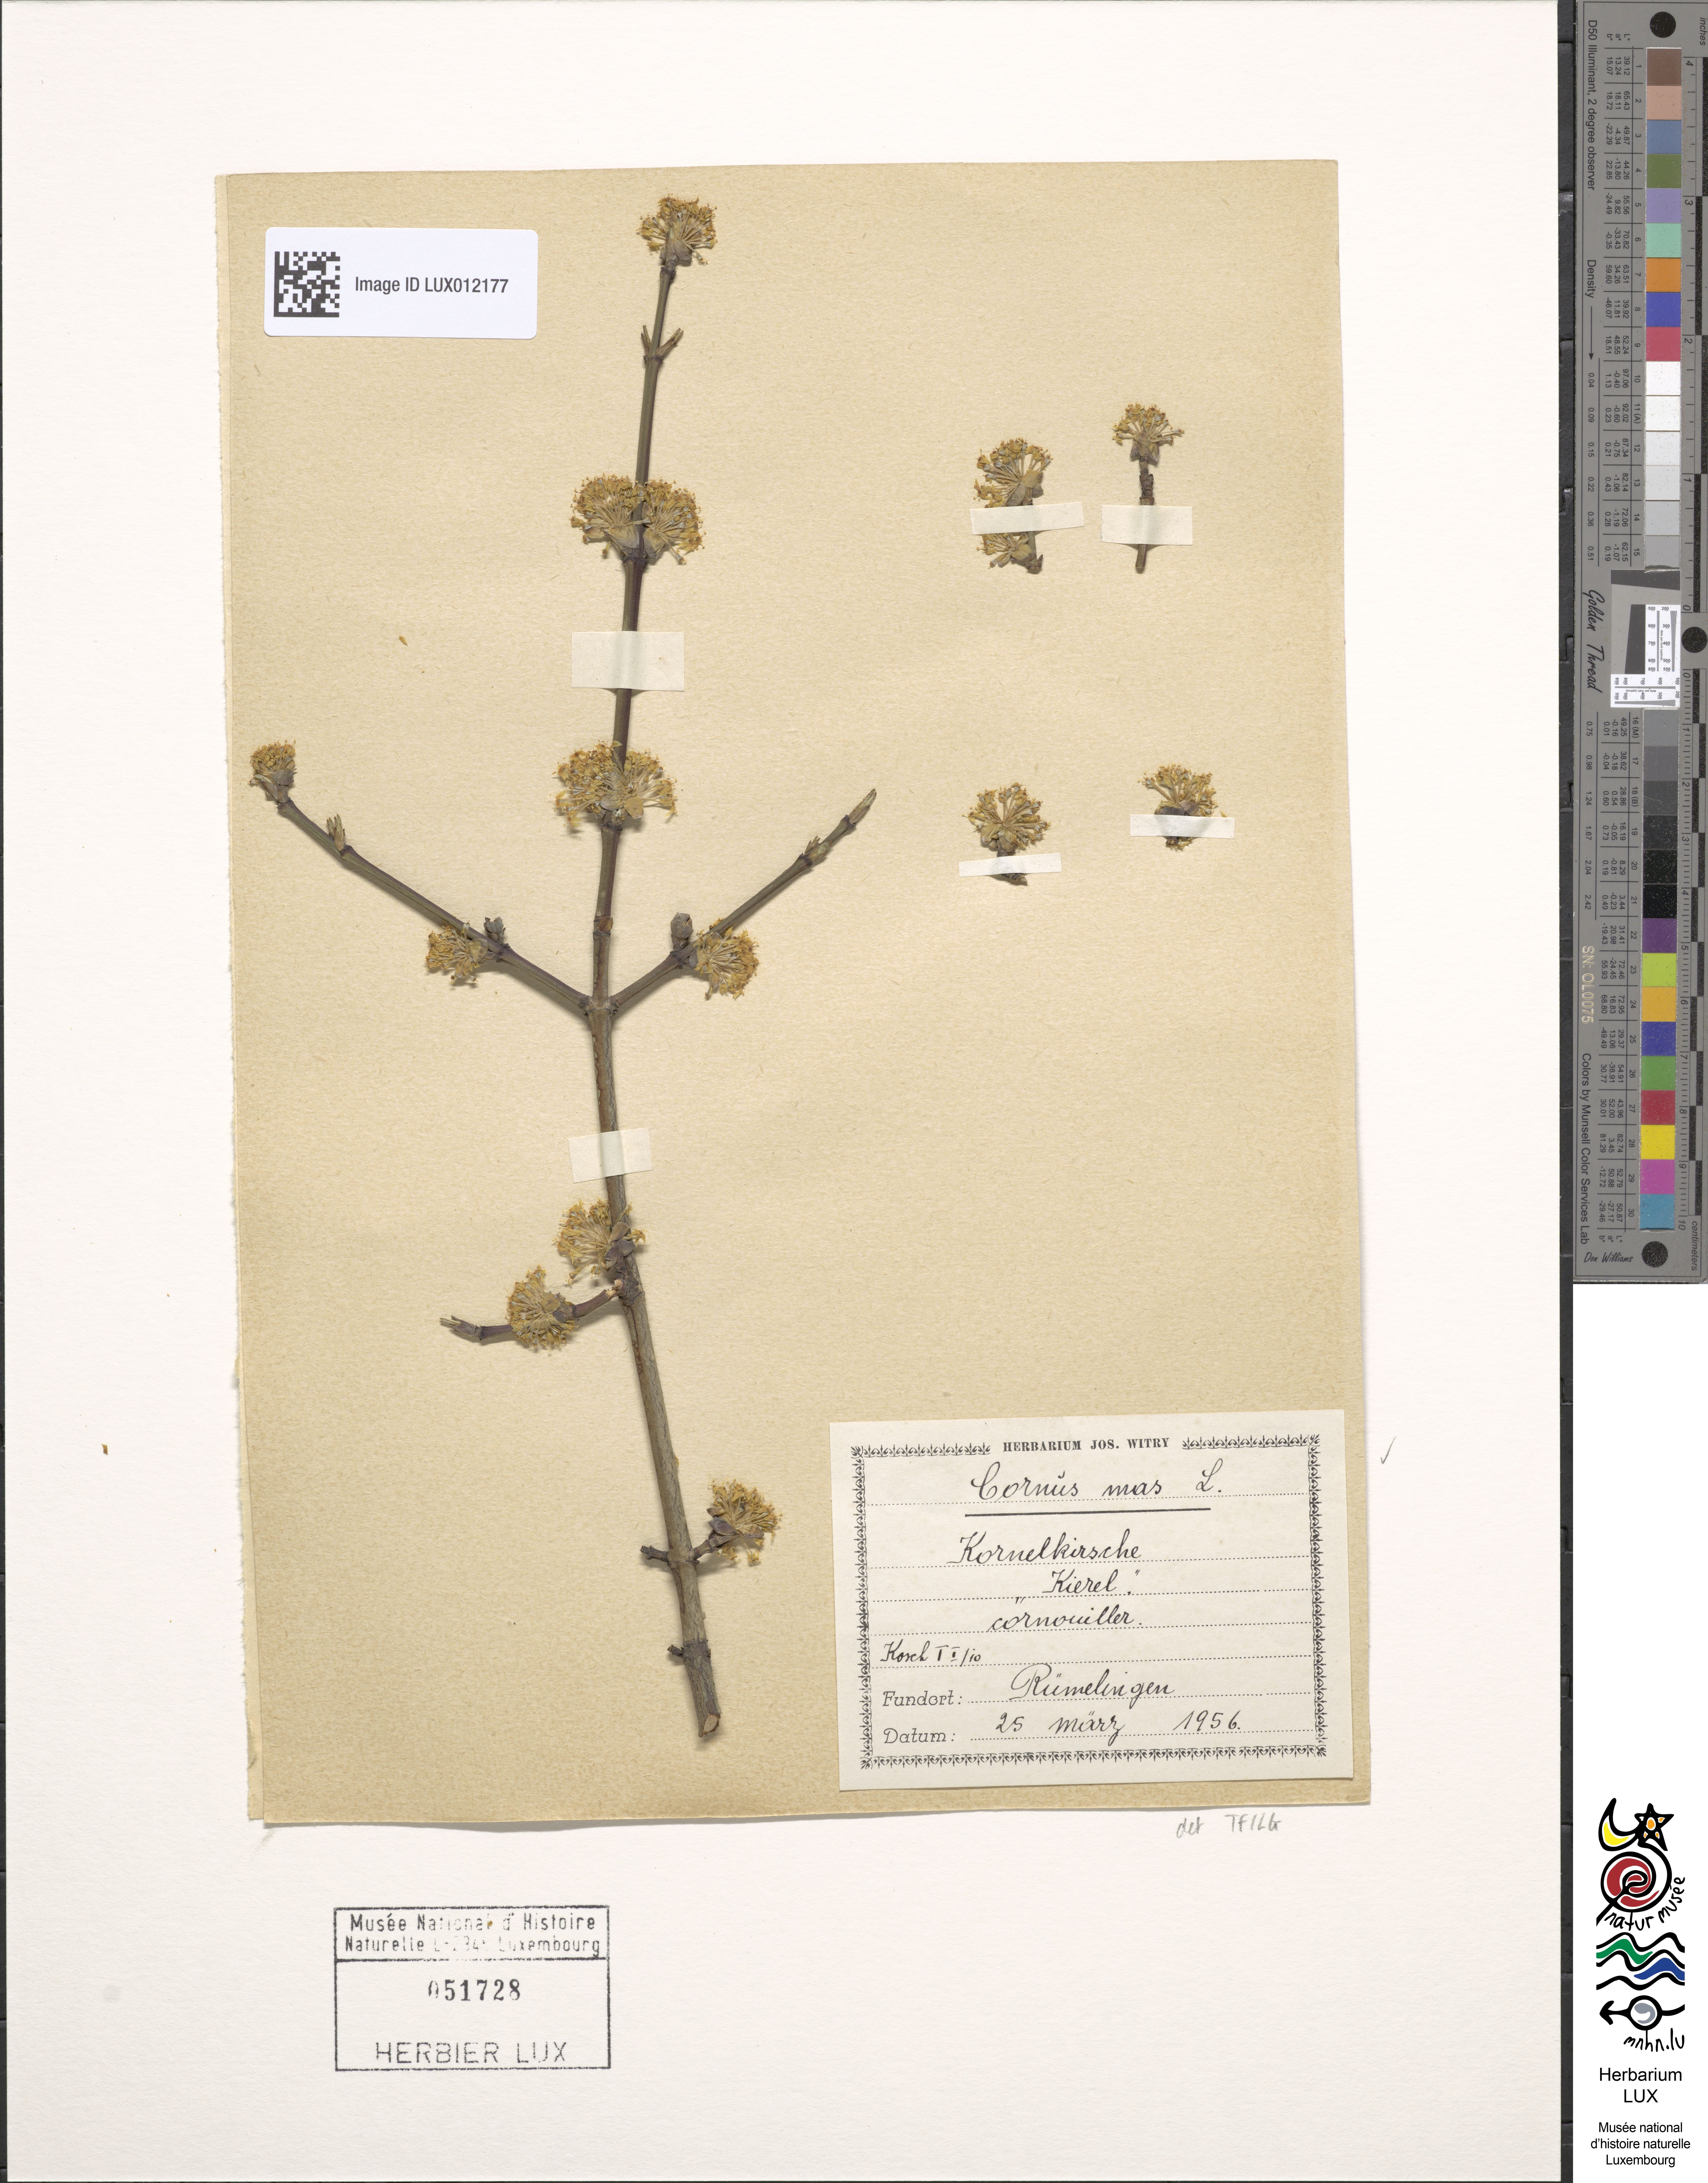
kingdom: Plantae
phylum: Tracheophyta
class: Magnoliopsida
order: Cornales
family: Cornaceae
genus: Cornus
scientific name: Cornus mas
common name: Cornelian-cherry
